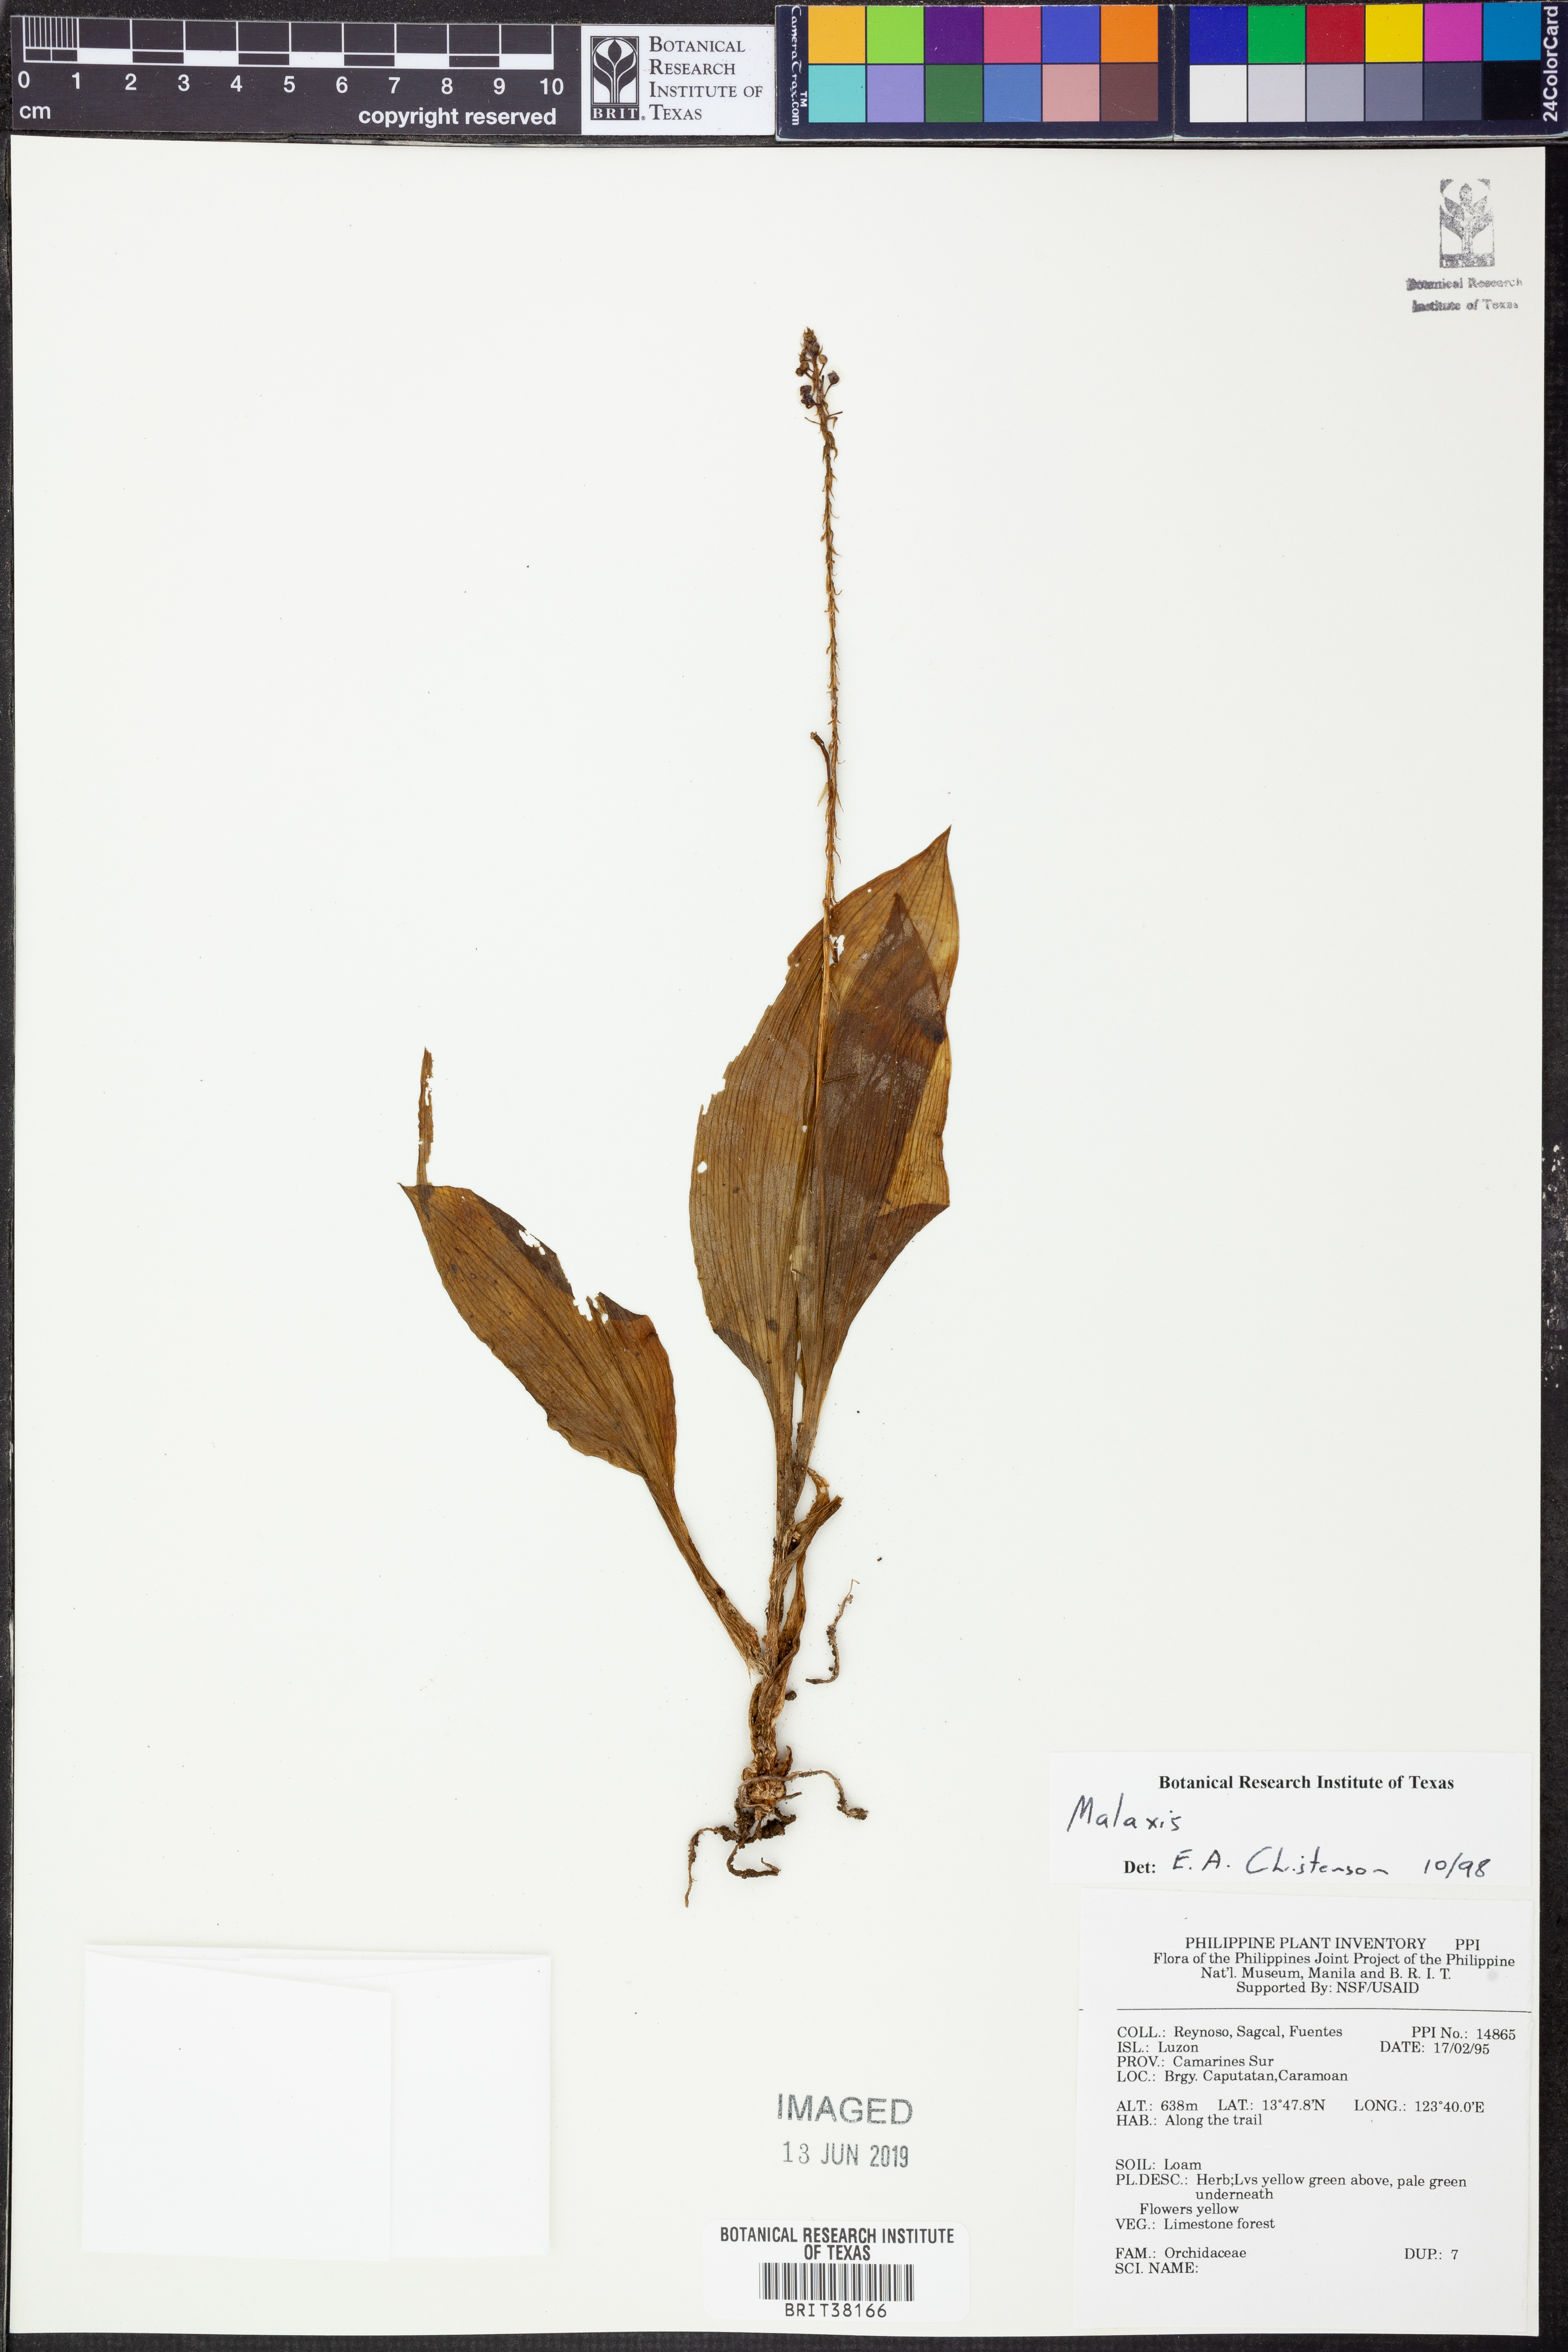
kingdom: Plantae
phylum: Tracheophyta
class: Liliopsida
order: Asparagales
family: Orchidaceae
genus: Malaxis
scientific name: Malaxis
